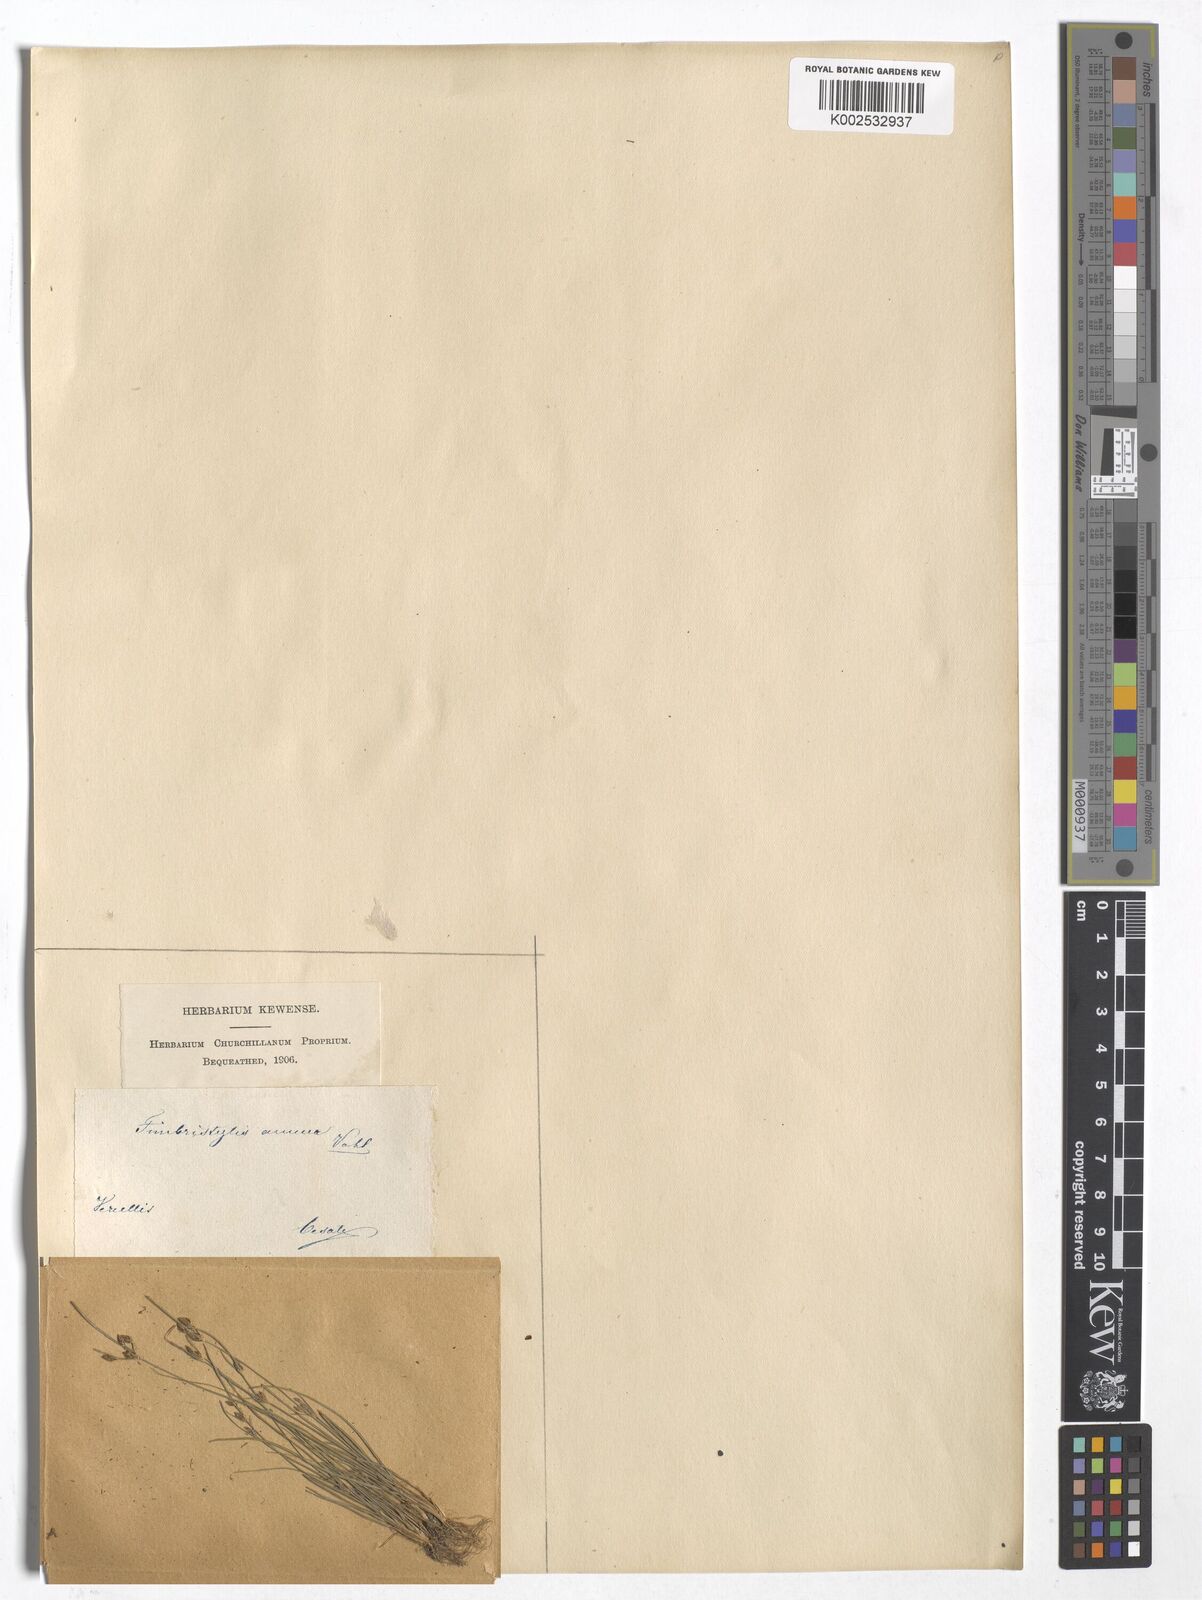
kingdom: Plantae
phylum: Tracheophyta
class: Liliopsida
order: Poales
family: Cyperaceae
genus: Fimbristylis
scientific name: Fimbristylis dichotoma
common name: Forked fimbry
